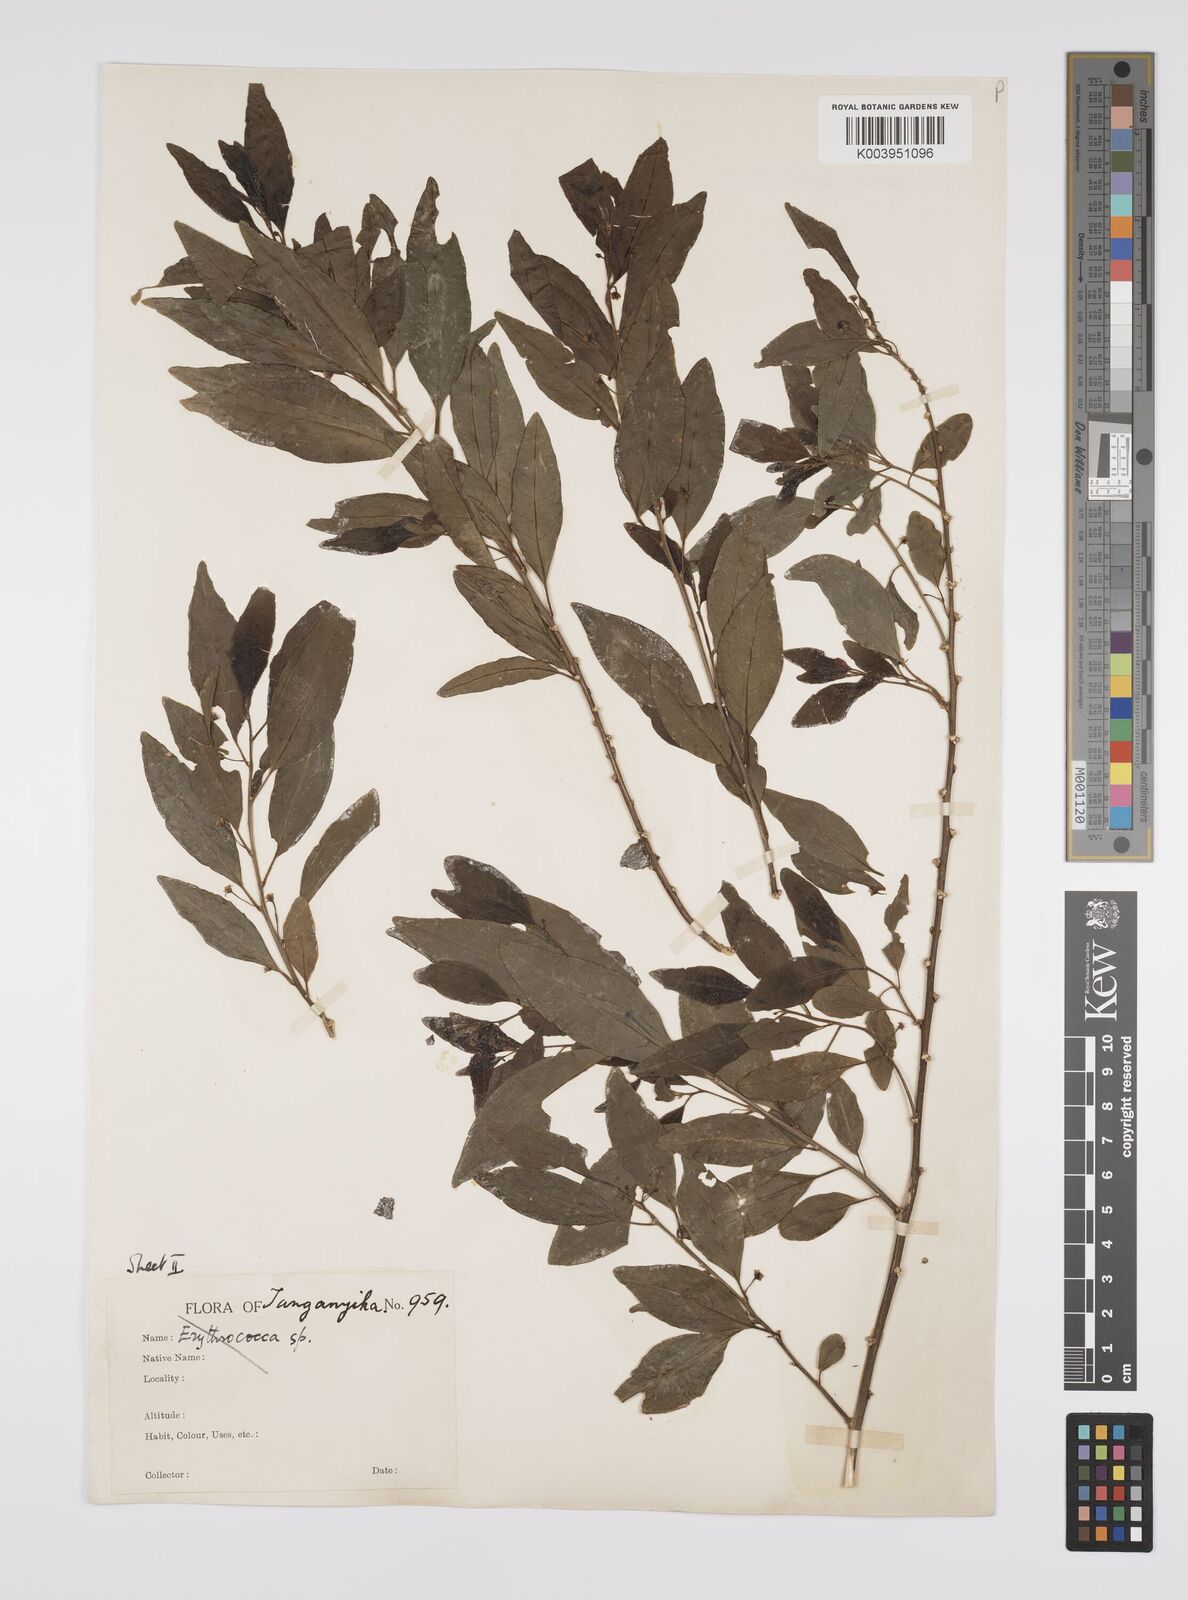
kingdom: Plantae
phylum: Tracheophyta
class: Magnoliopsida
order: Malpighiales
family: Peraceae
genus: Clutia
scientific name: Clutia
